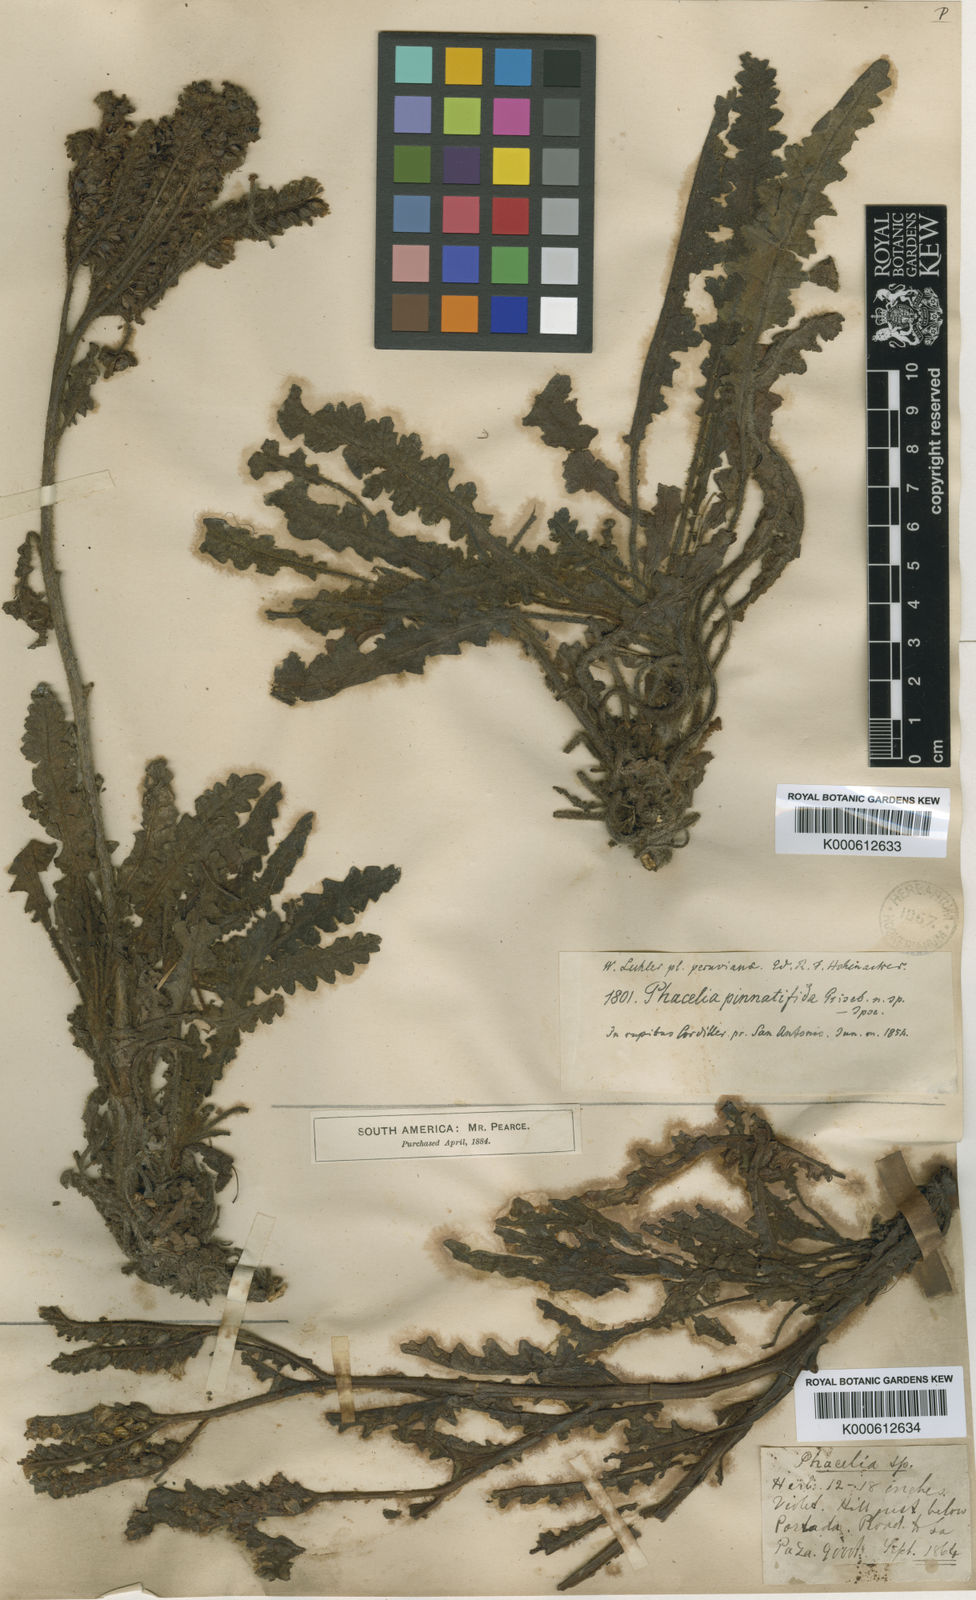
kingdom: Plantae
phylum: Tracheophyta
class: Magnoliopsida
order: Boraginales
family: Hydrophyllaceae
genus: Phacelia
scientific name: Phacelia pinnatifida
